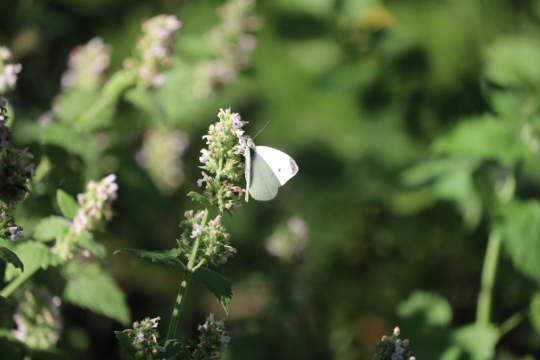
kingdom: Animalia
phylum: Arthropoda
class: Insecta
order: Lepidoptera
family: Pieridae
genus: Pieris
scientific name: Pieris rapae
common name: Cabbage White
